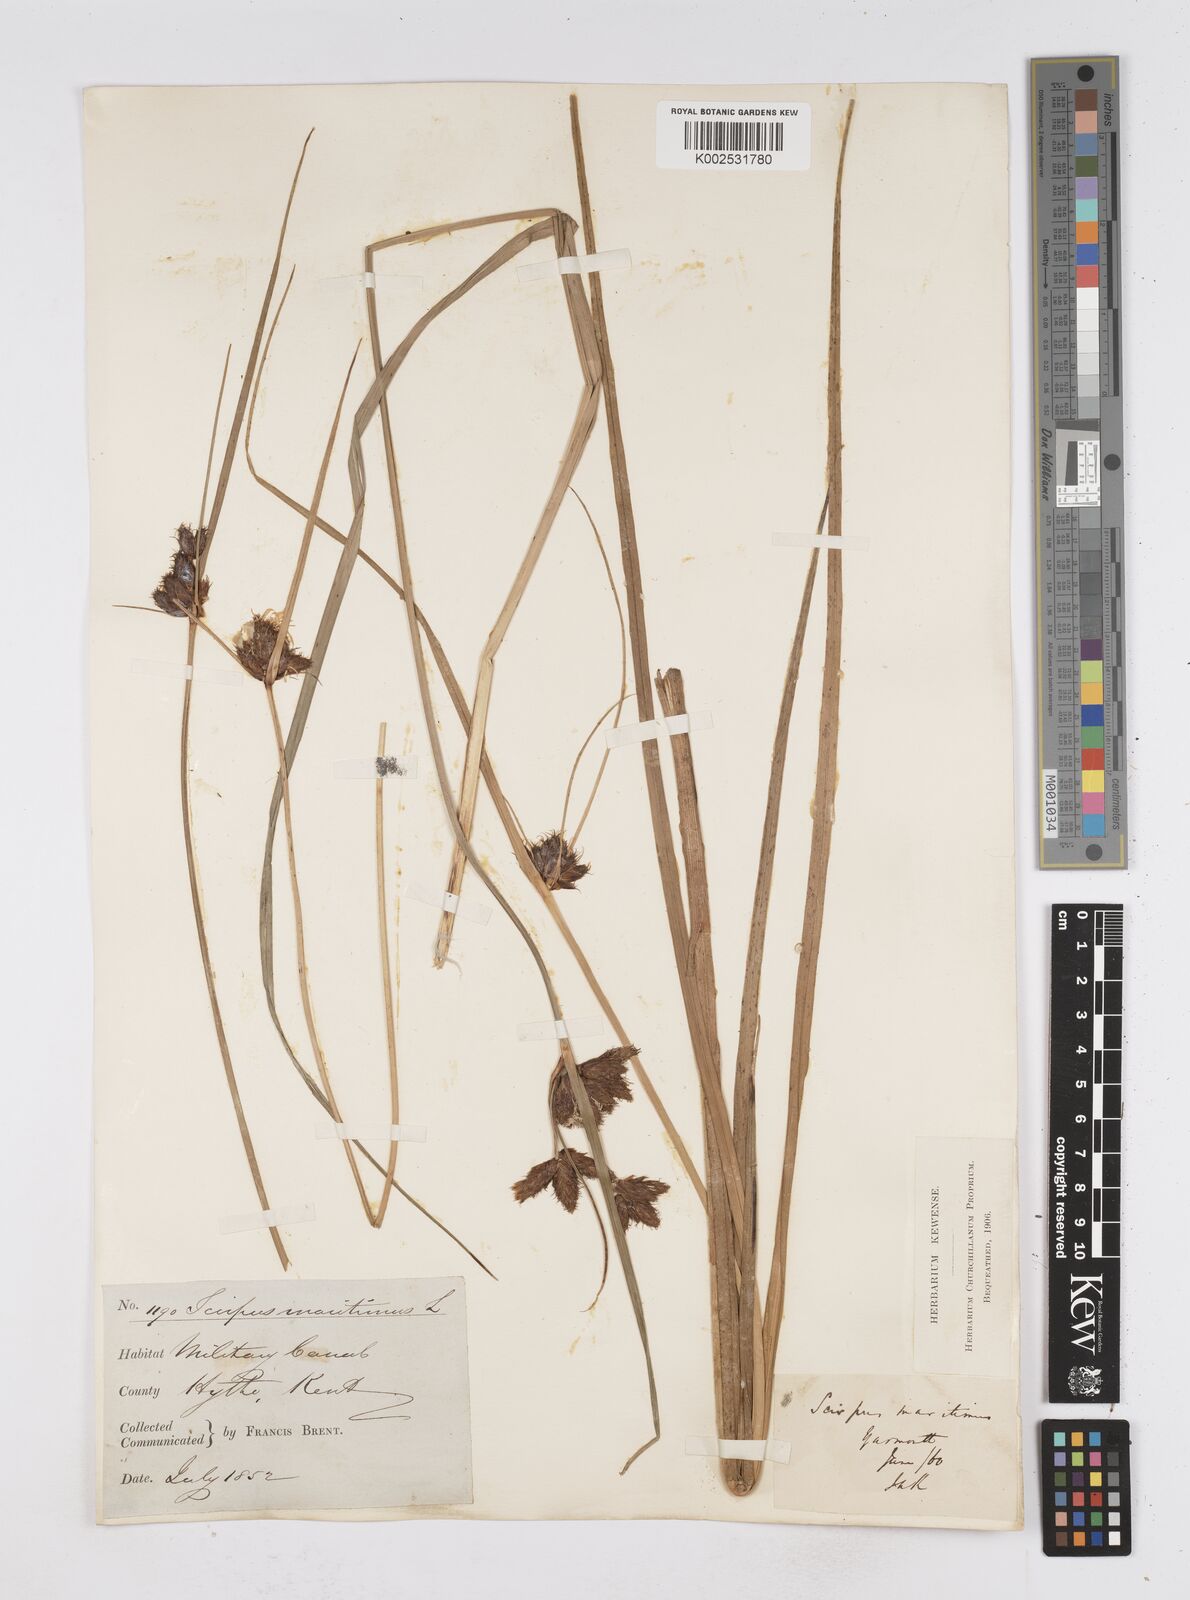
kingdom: Plantae
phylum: Tracheophyta
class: Liliopsida
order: Poales
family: Cyperaceae
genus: Bolboschoenus
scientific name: Bolboschoenus maritimus
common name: Sea club-rush
